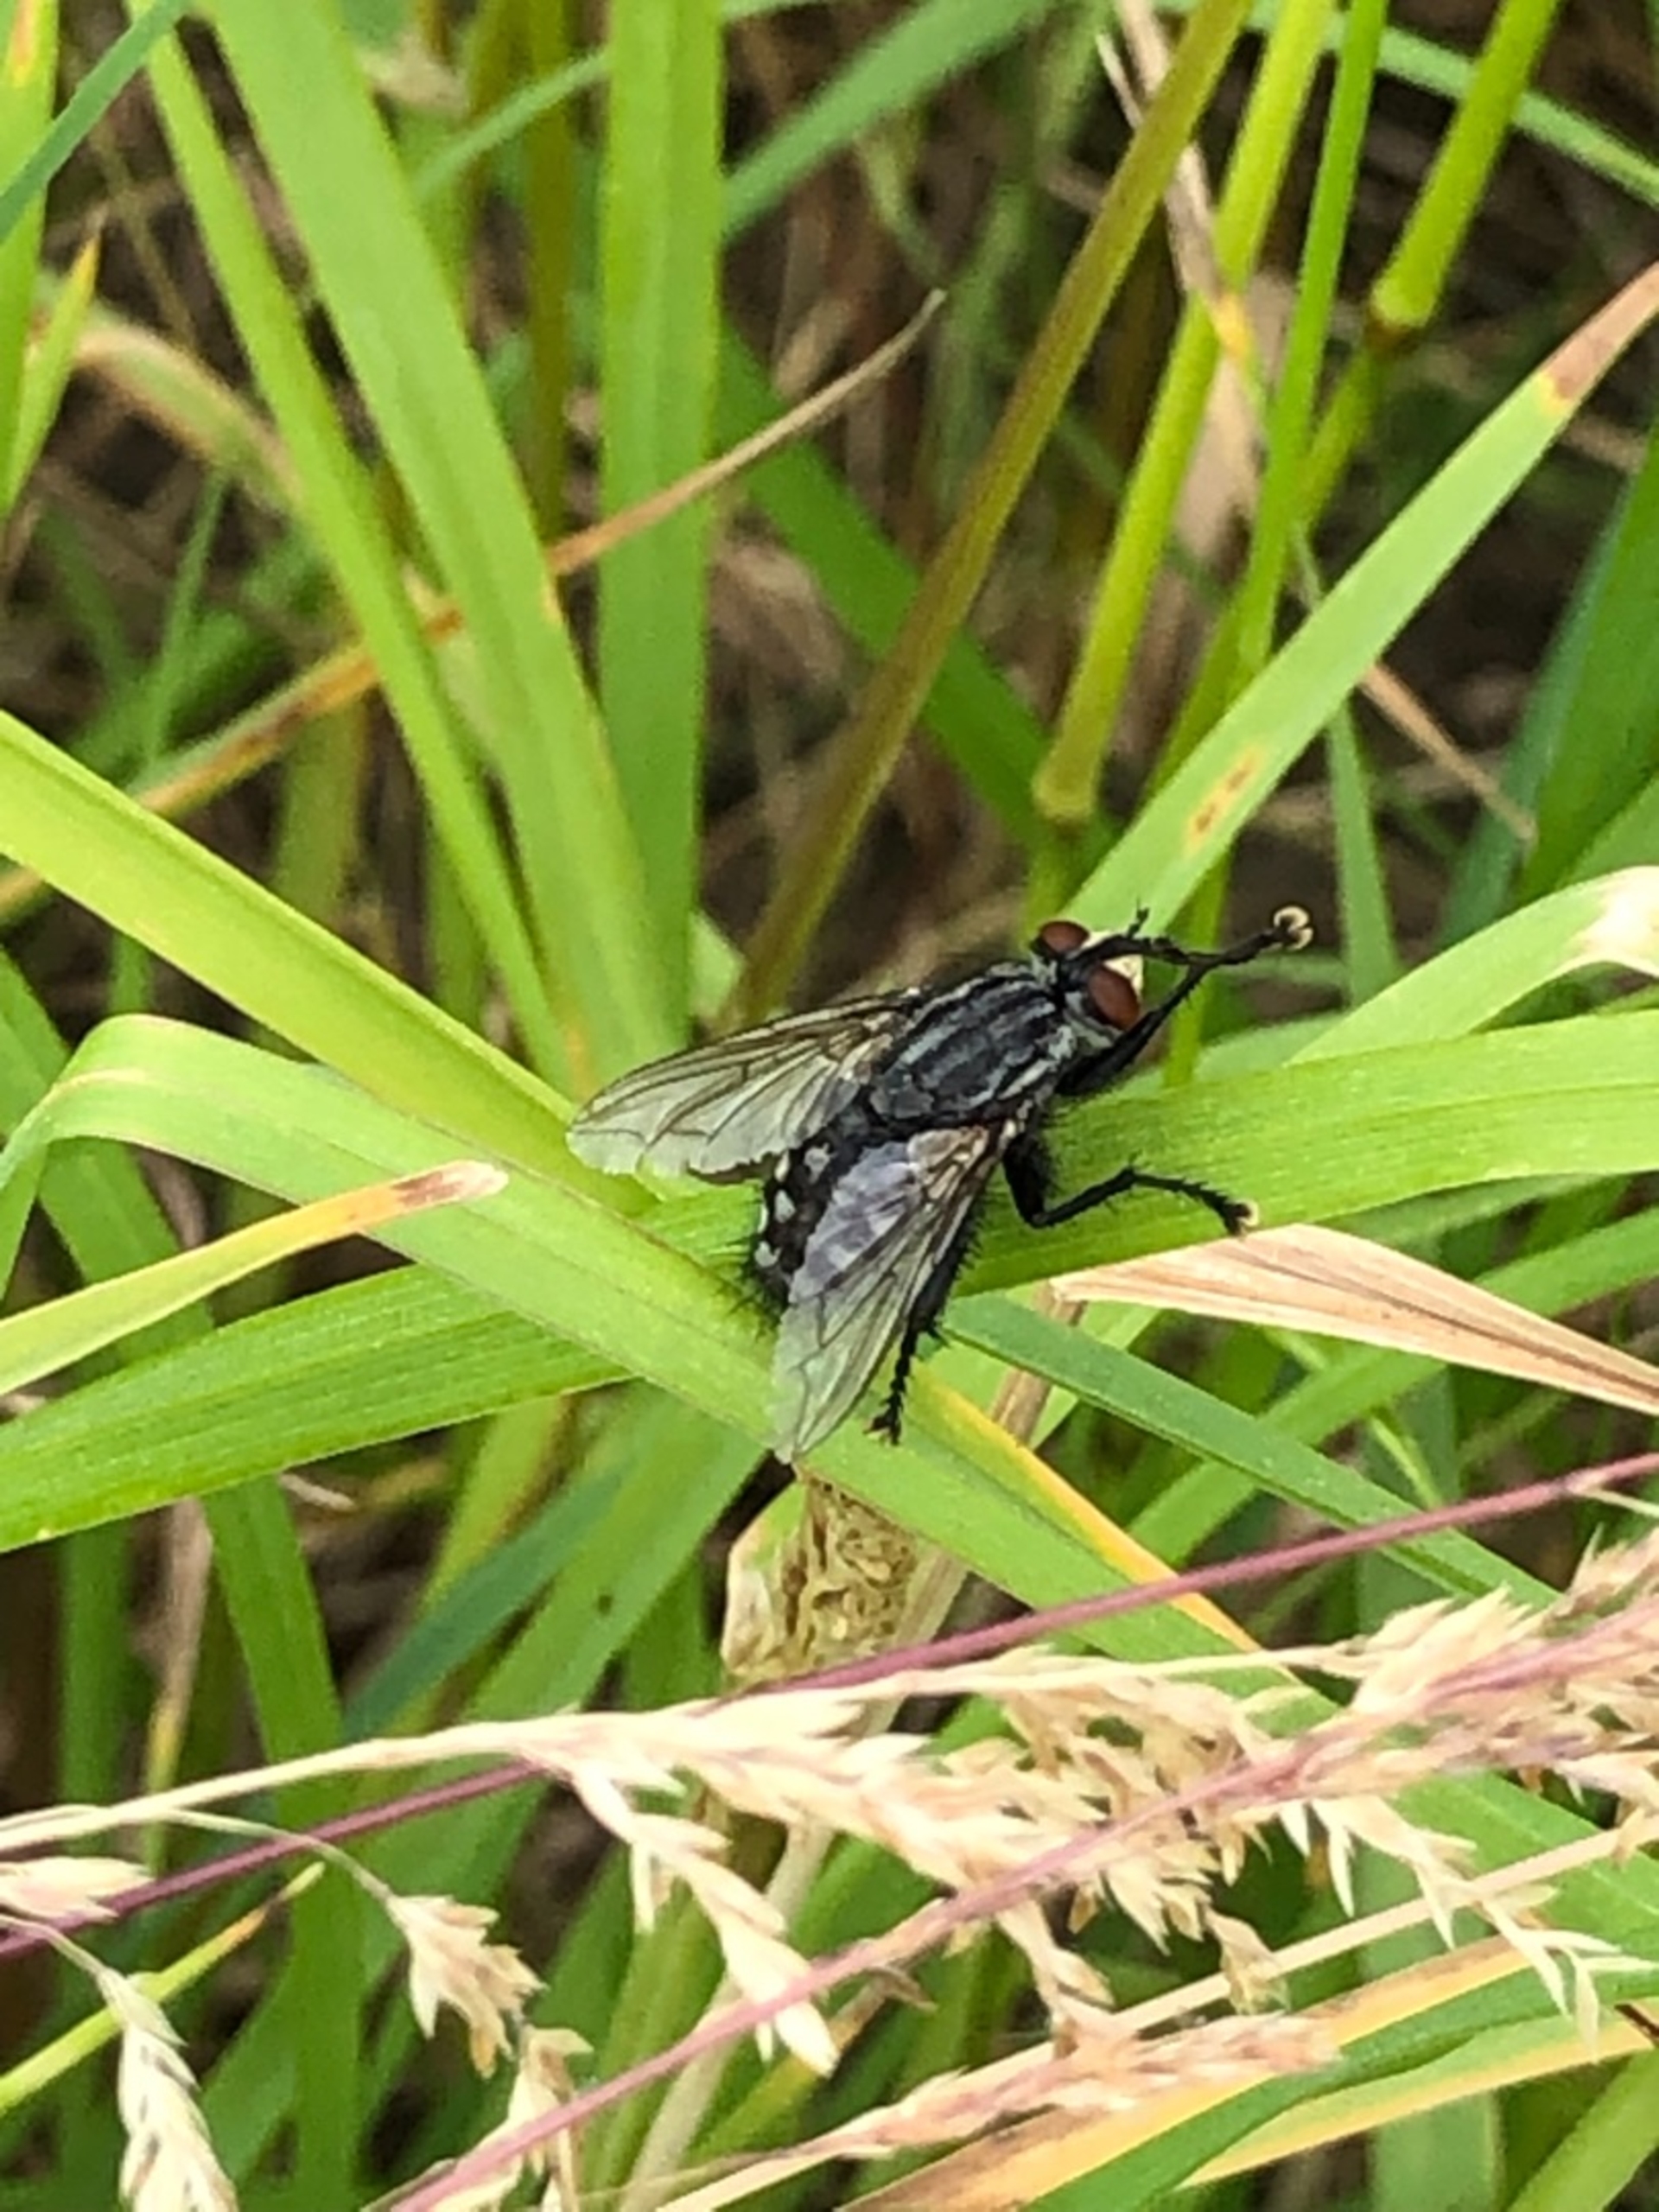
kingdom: Animalia
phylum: Arthropoda
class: Insecta
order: Diptera
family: Sarcophagidae
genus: Sarcophaga
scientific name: Sarcophaga
